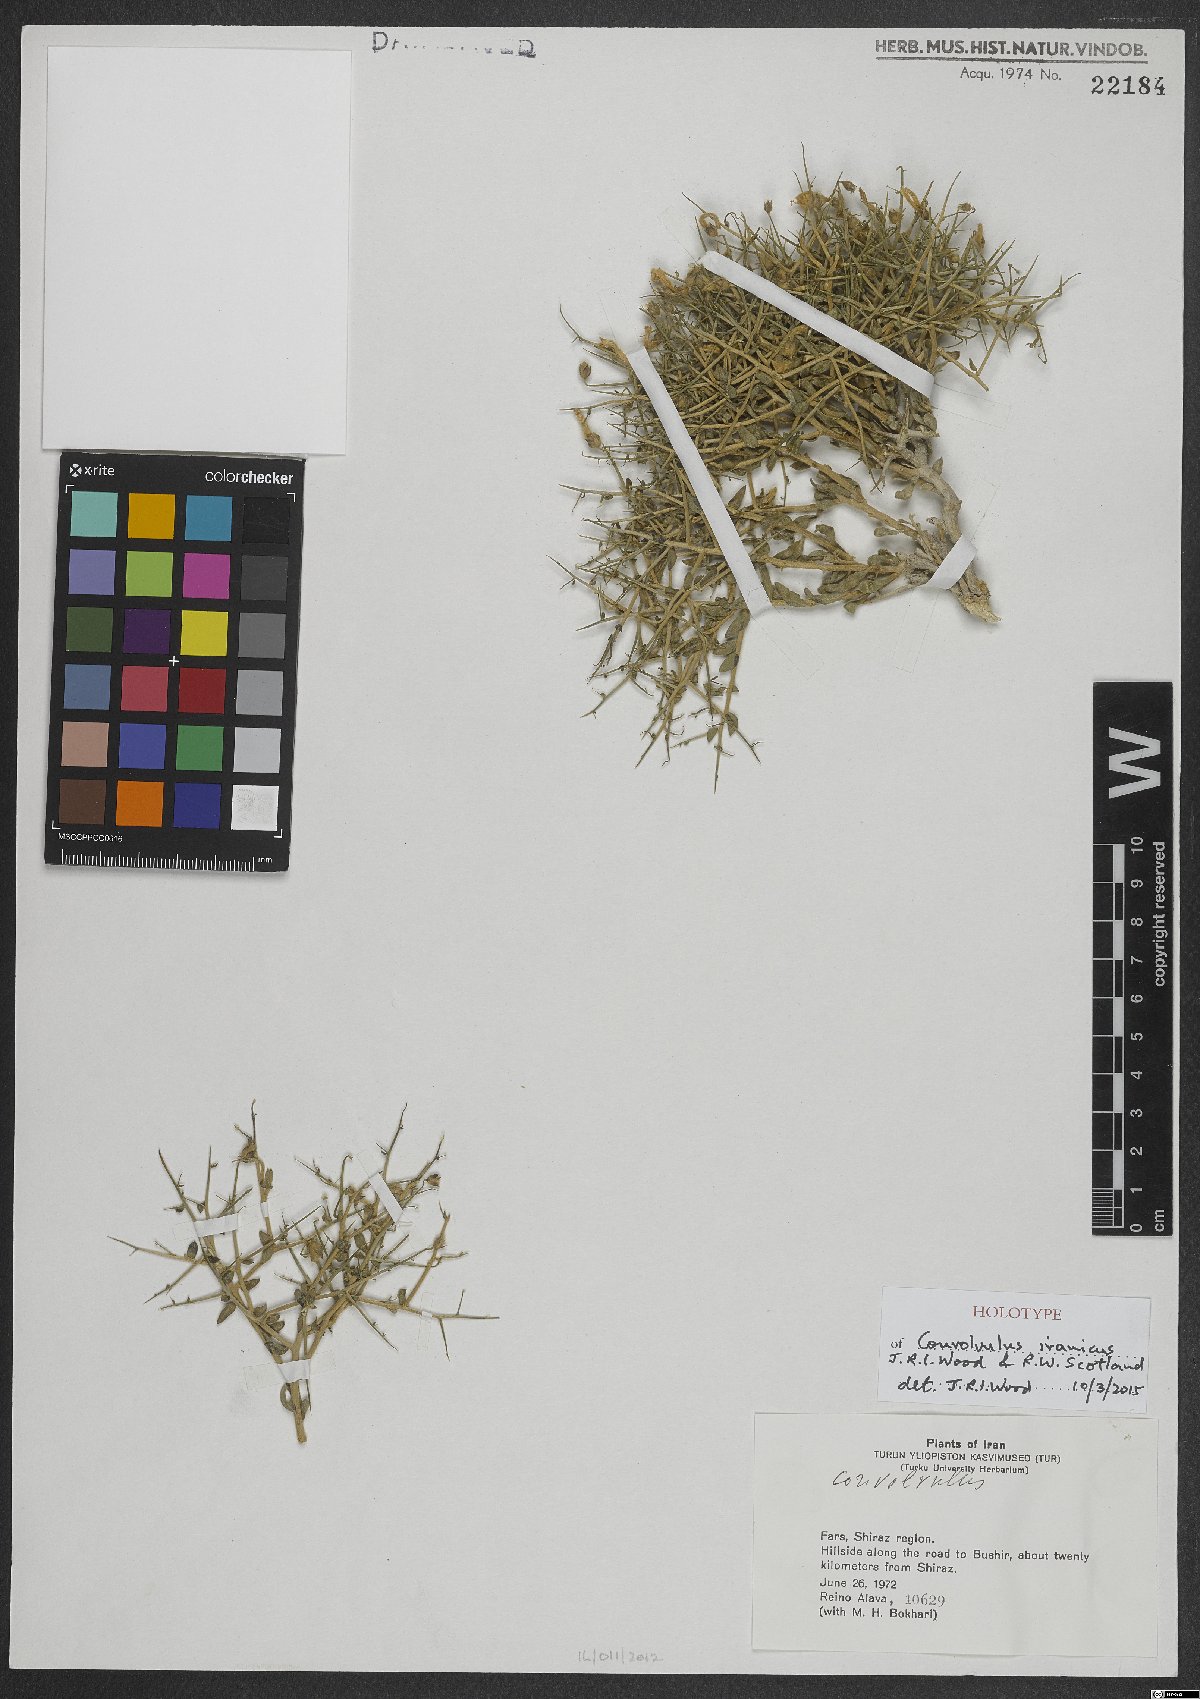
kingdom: Plantae
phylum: Tracheophyta
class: Magnoliopsida
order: Solanales
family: Convolvulaceae
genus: Convolvulus
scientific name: Convolvulus iranicus
